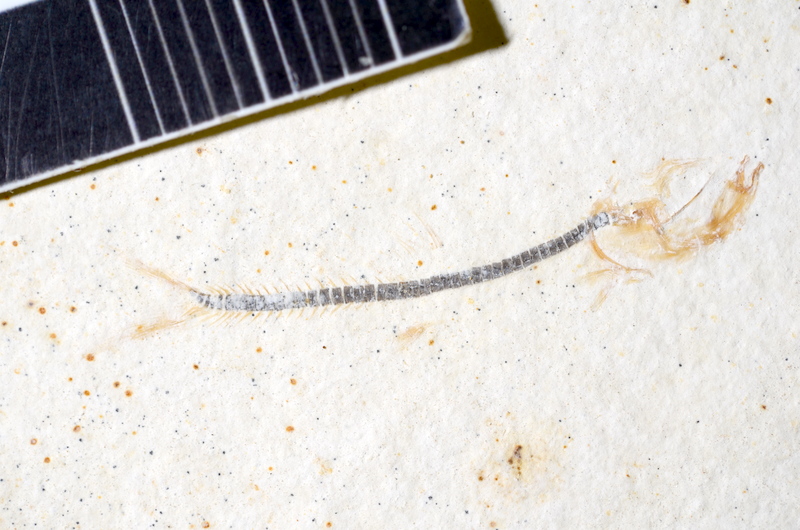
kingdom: Animalia
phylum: Chordata
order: Salmoniformes
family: Orthogonikleithridae
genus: Orthogonikleithrus
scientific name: Orthogonikleithrus hoelli
